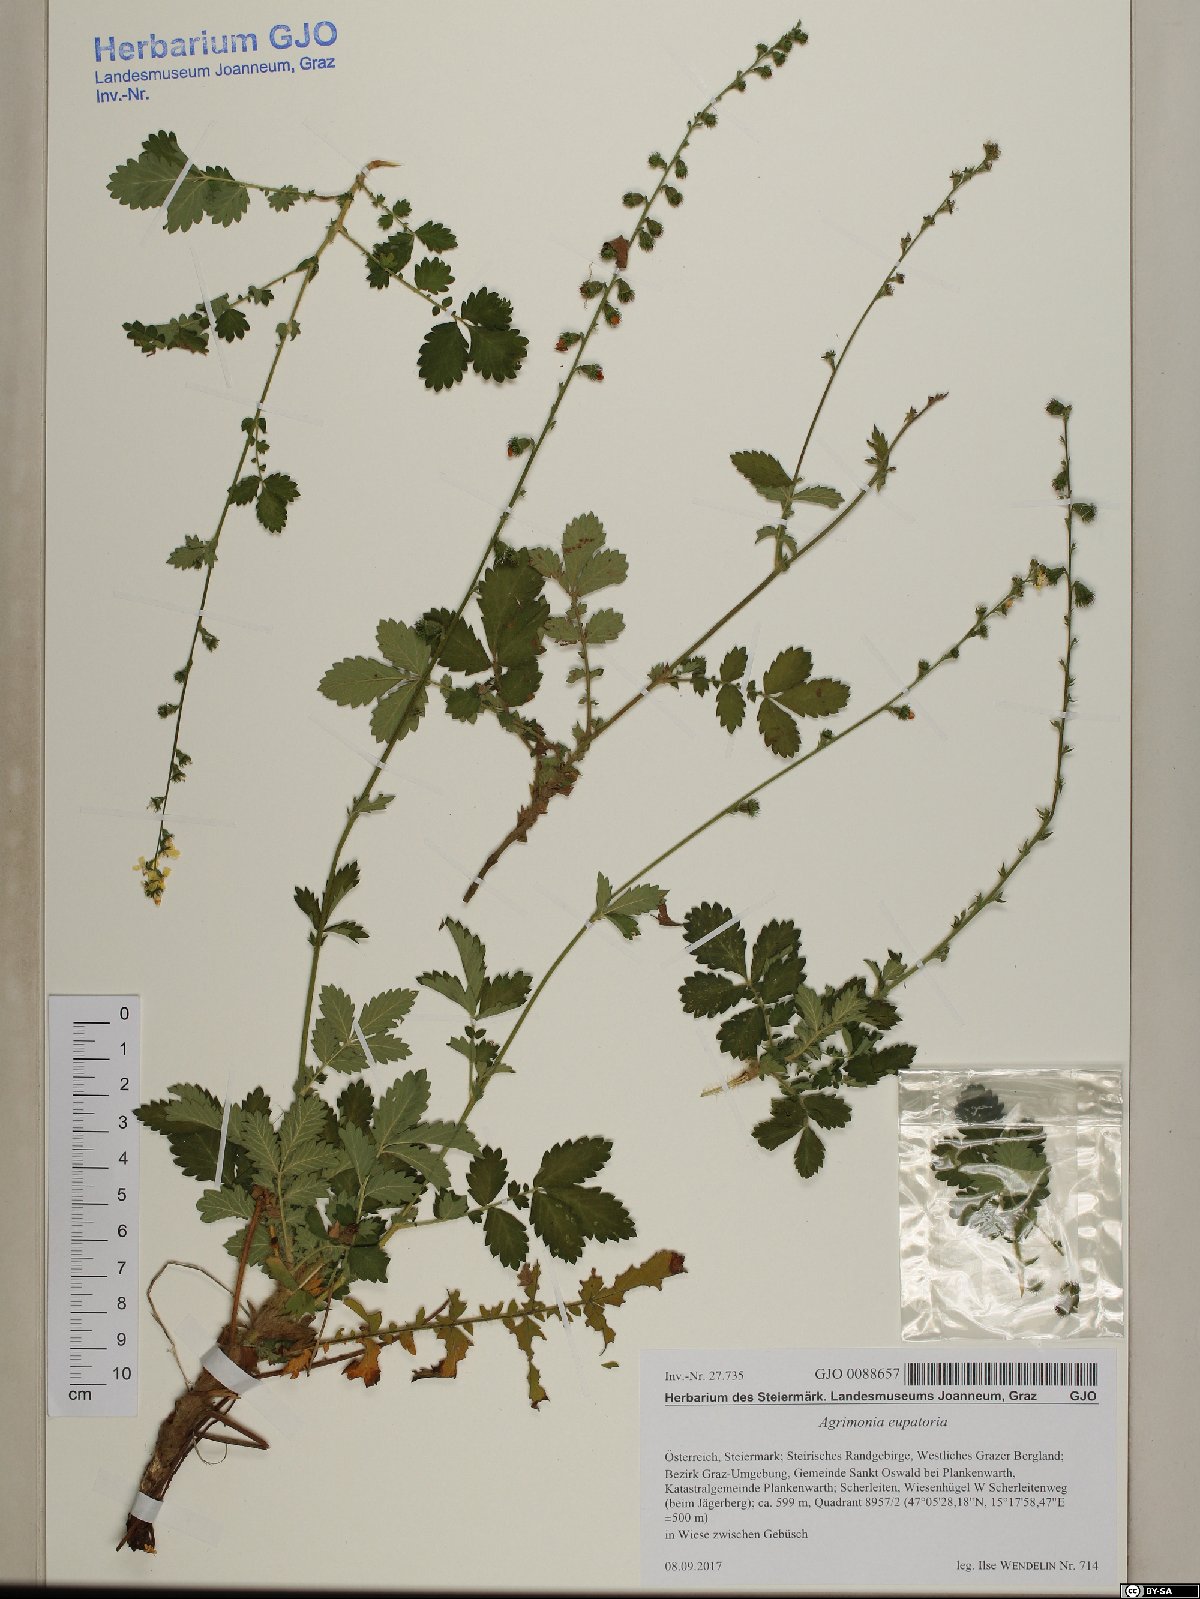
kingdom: Plantae
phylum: Tracheophyta
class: Magnoliopsida
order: Rosales
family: Rosaceae
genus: Agrimonia
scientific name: Agrimonia eupatoria
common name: Agrimony
